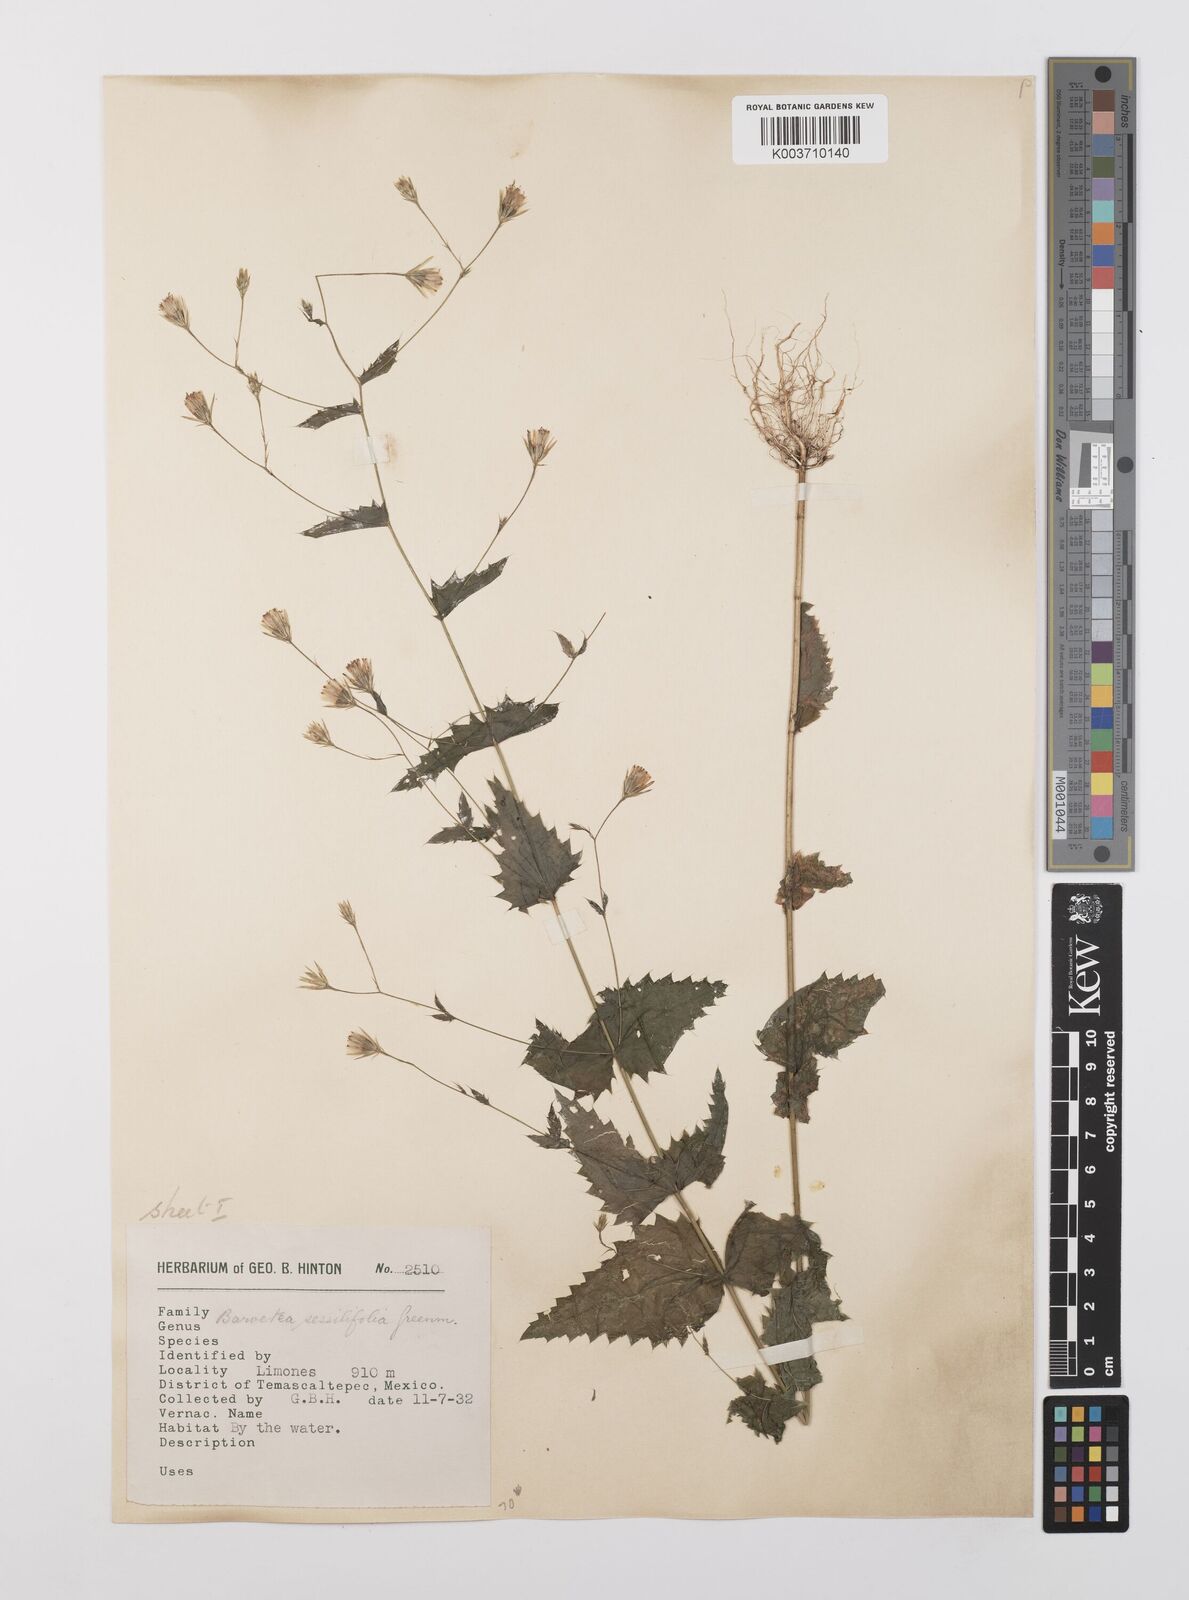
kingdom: Plantae
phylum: Tracheophyta
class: Magnoliopsida
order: Asterales
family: Asteraceae
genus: Brickellia
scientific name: Brickellia pavonii
